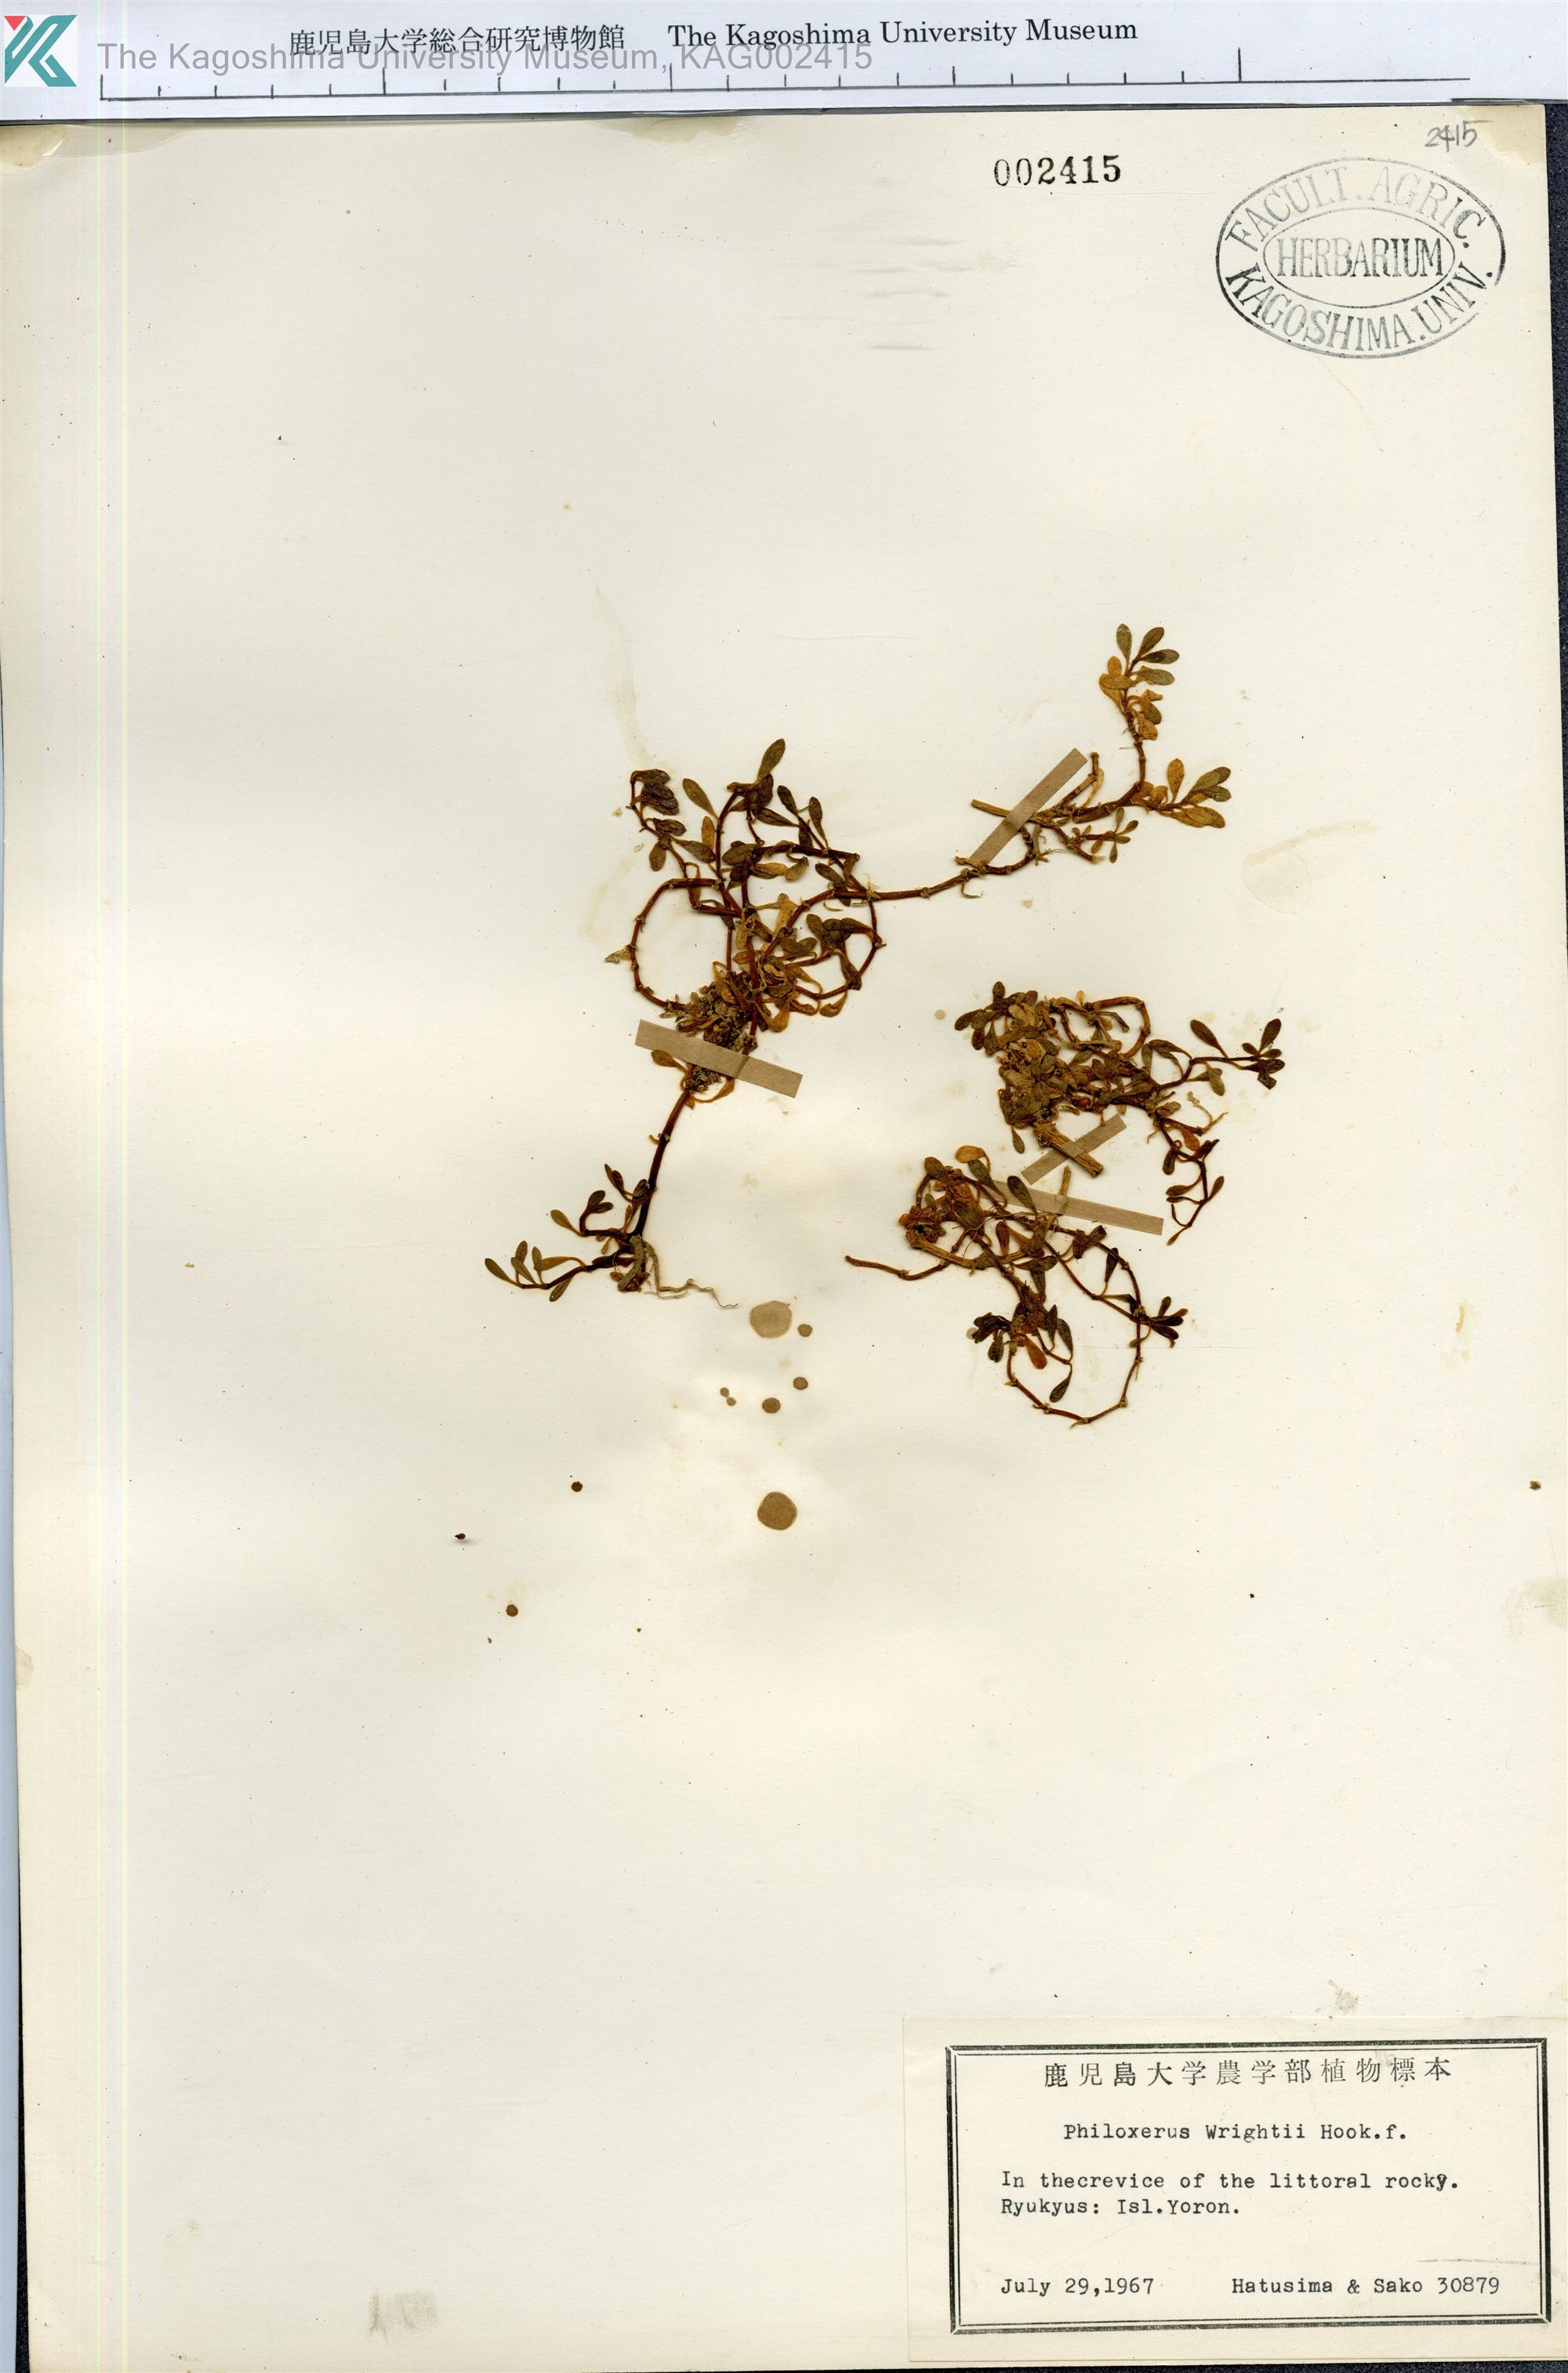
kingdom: Plantae
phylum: Tracheophyta
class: Magnoliopsida
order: Caryophyllales
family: Amaranthaceae
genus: Gomphrena
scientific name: Gomphrena wrightii
